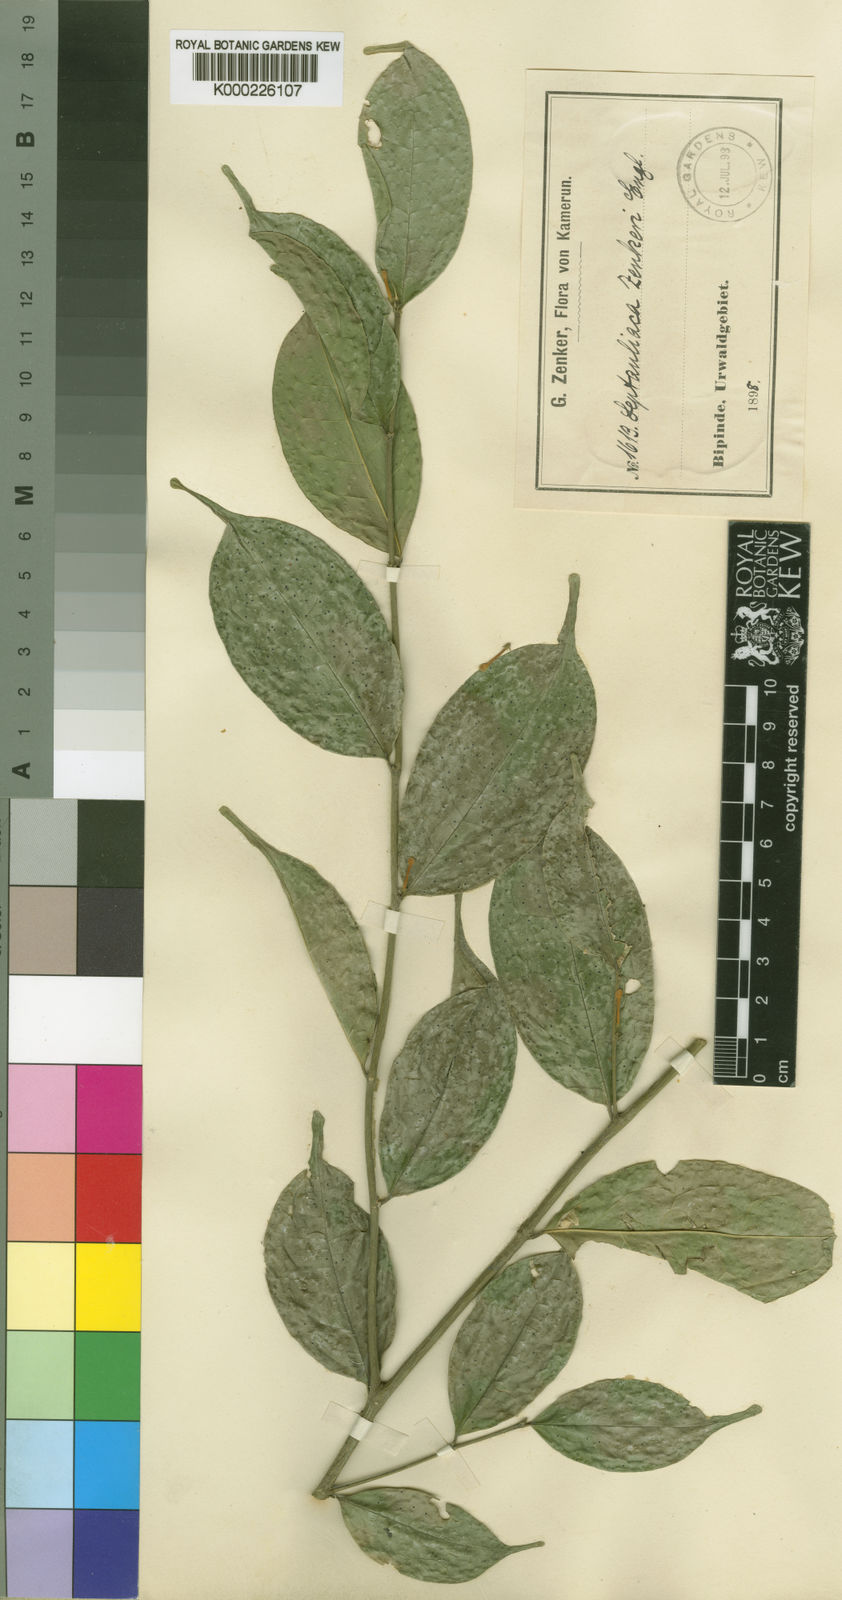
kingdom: Plantae
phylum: Tracheophyta
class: Magnoliopsida
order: Cardiopteridales
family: Cardiopteridaceae
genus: Leptaulus
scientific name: Leptaulus congolanus
